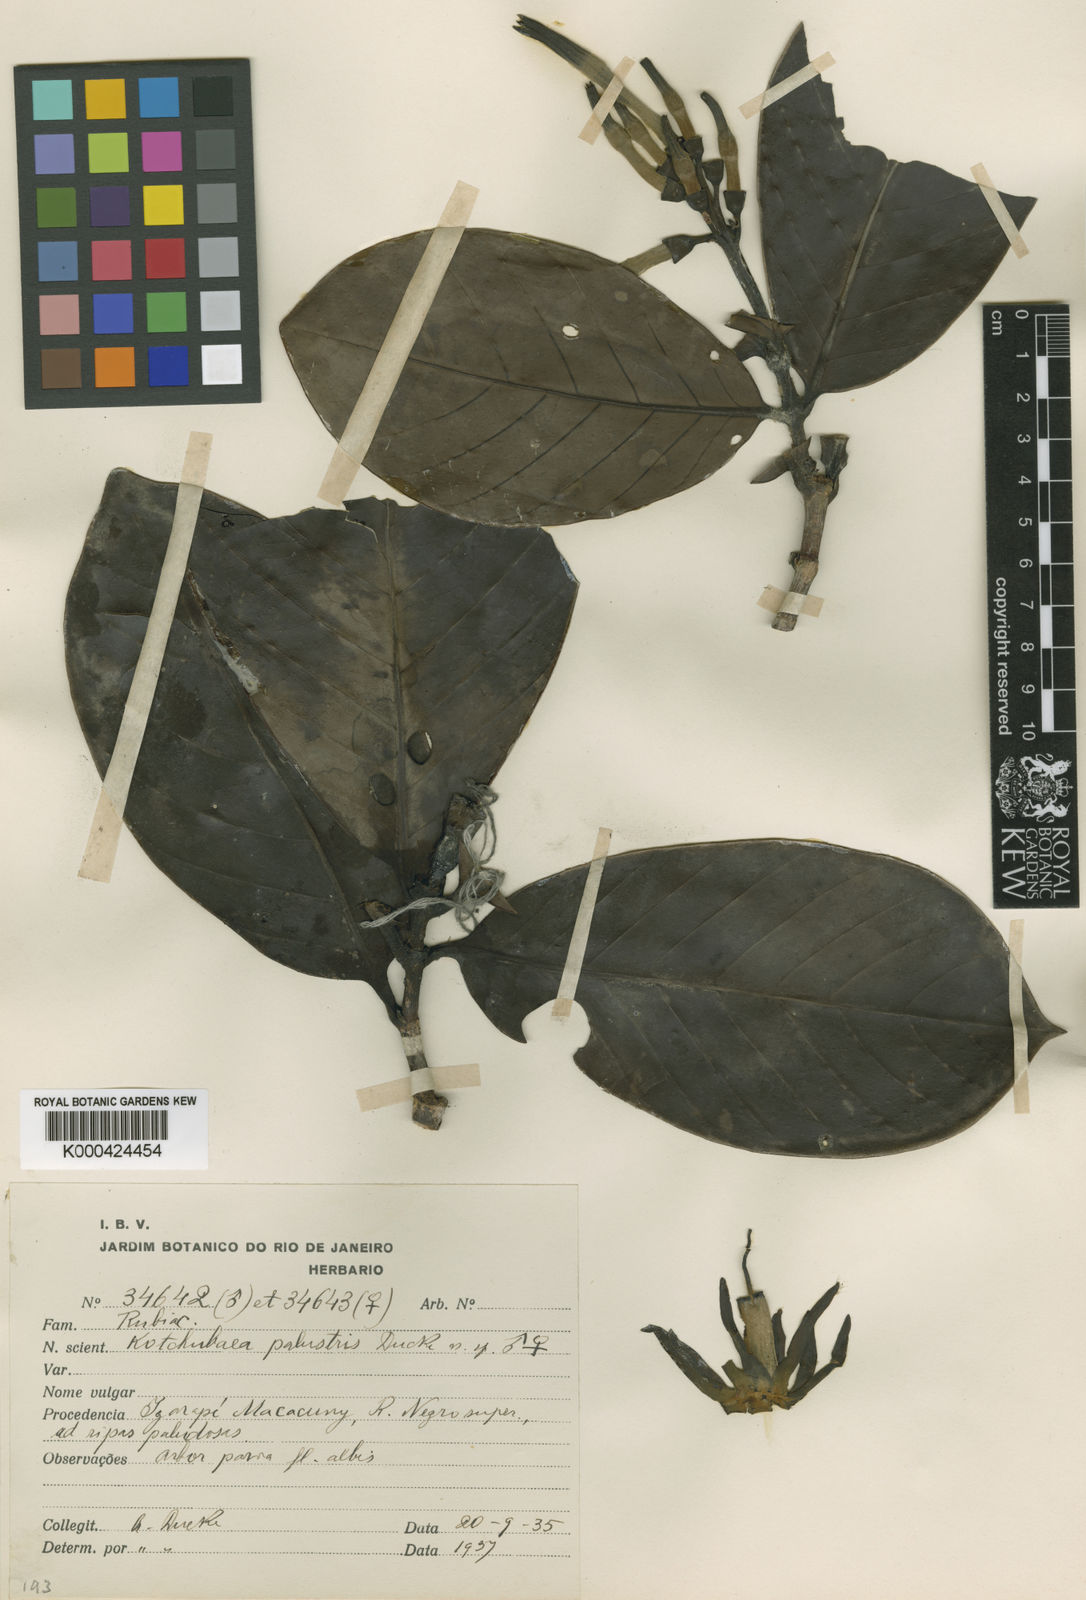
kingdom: Plantae
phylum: Tracheophyta
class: Magnoliopsida
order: Gentianales
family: Rubiaceae
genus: Kutchubaea
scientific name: Kutchubaea palustris
